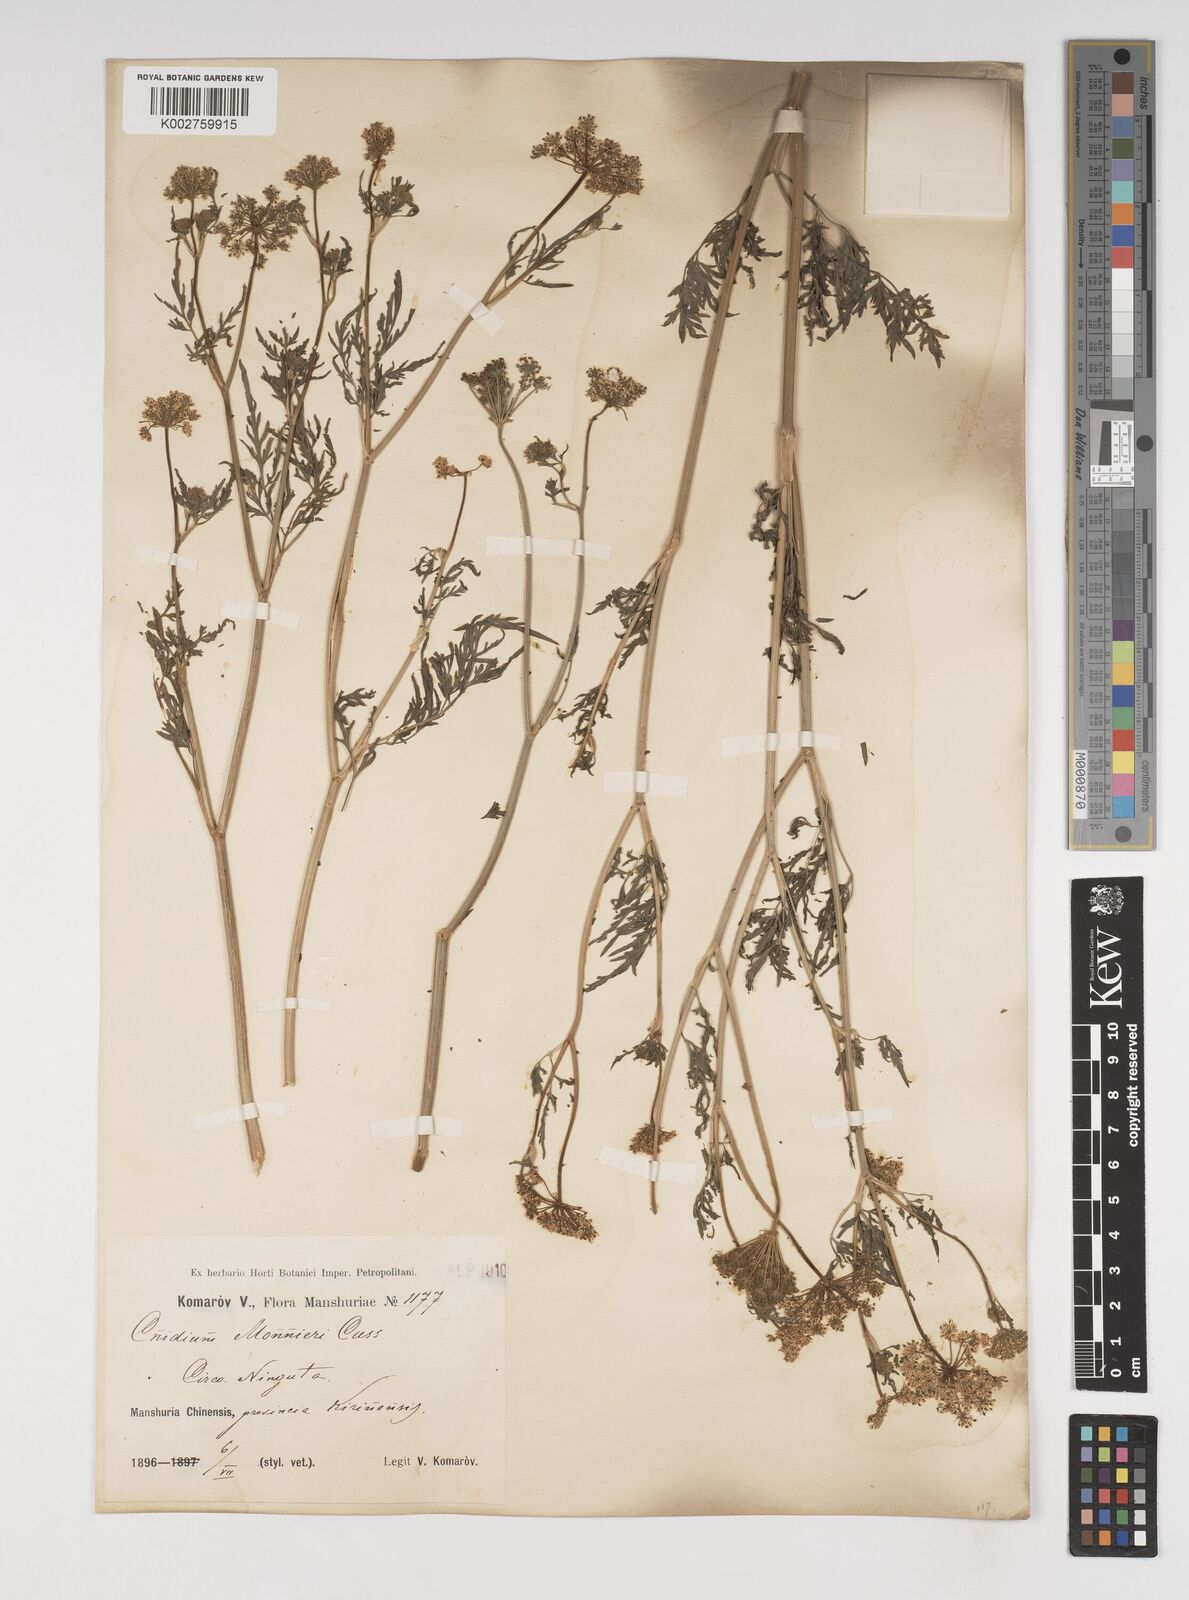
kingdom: Plantae
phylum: Tracheophyta
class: Magnoliopsida
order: Apiales
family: Apiaceae
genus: Cnidium
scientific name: Cnidium monnieri
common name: Monnier's snowparsley
